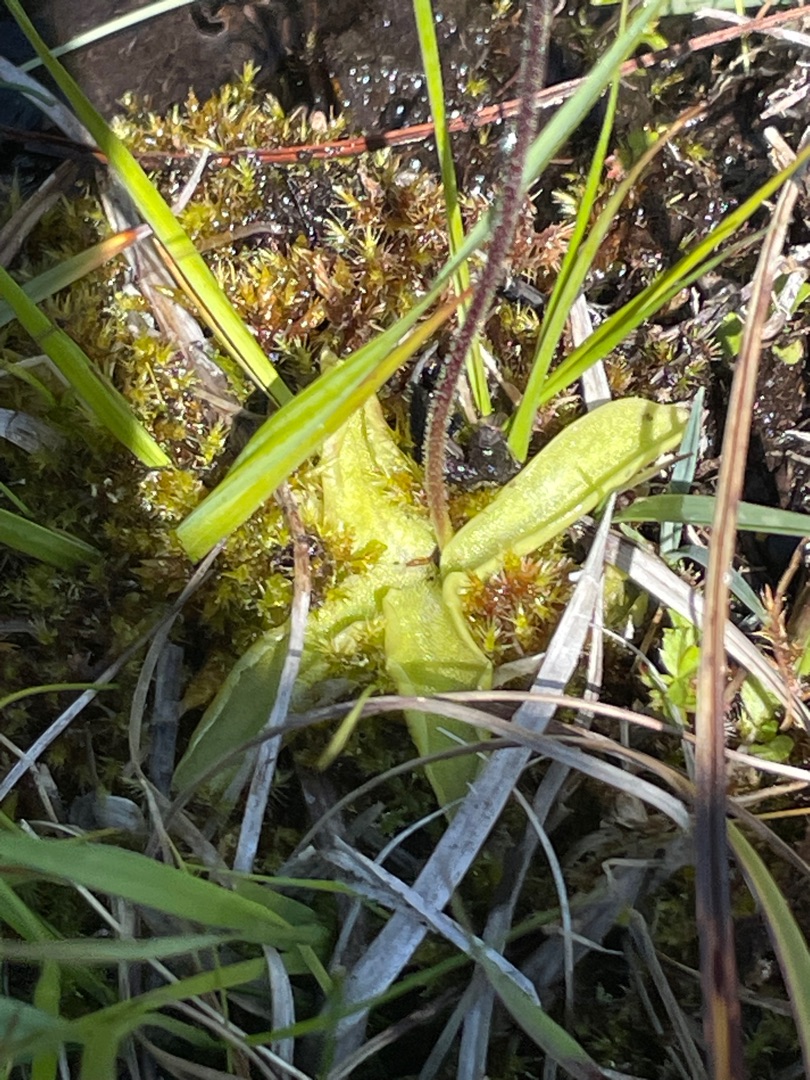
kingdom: Plantae
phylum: Tracheophyta
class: Magnoliopsida
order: Lamiales
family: Lentibulariaceae
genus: Pinguicula
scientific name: Pinguicula vulgaris
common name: Vibefedt
